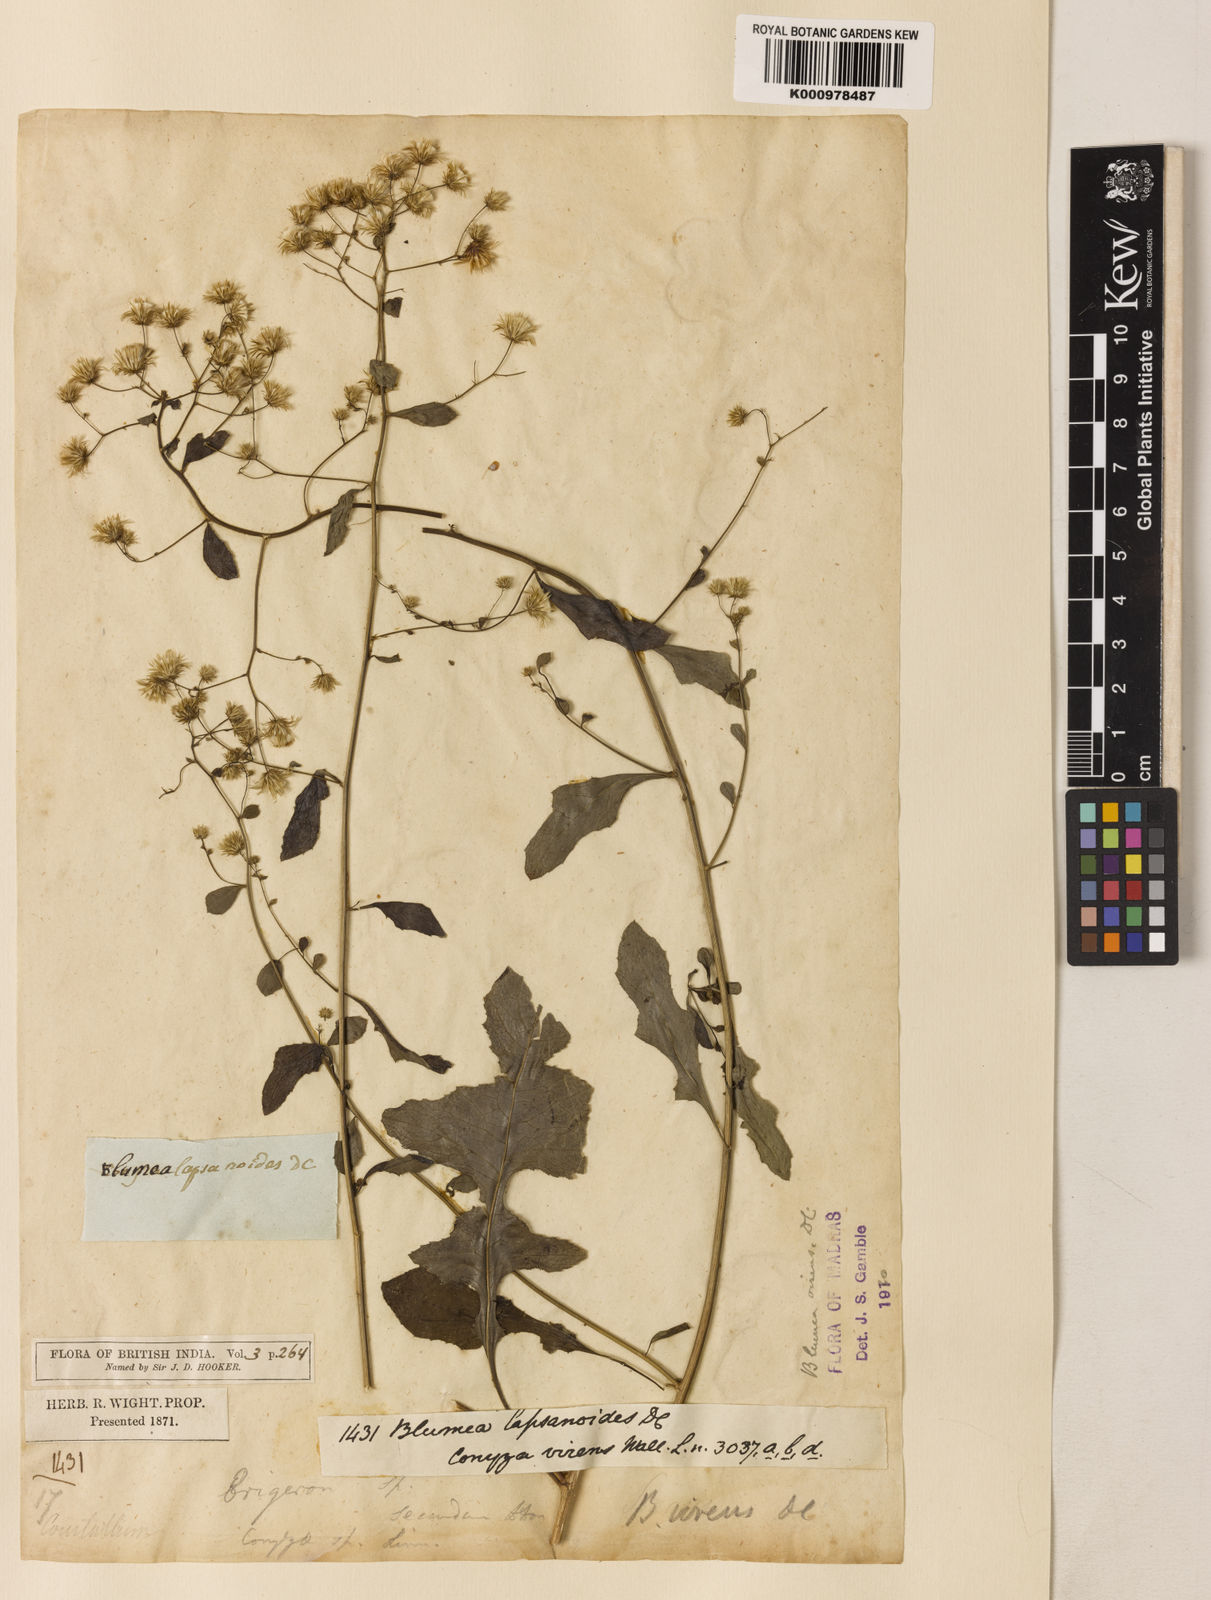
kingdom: Plantae
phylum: Tracheophyta
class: Magnoliopsida
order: Asterales
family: Asteraceae
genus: Blumea
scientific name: Blumea virens
